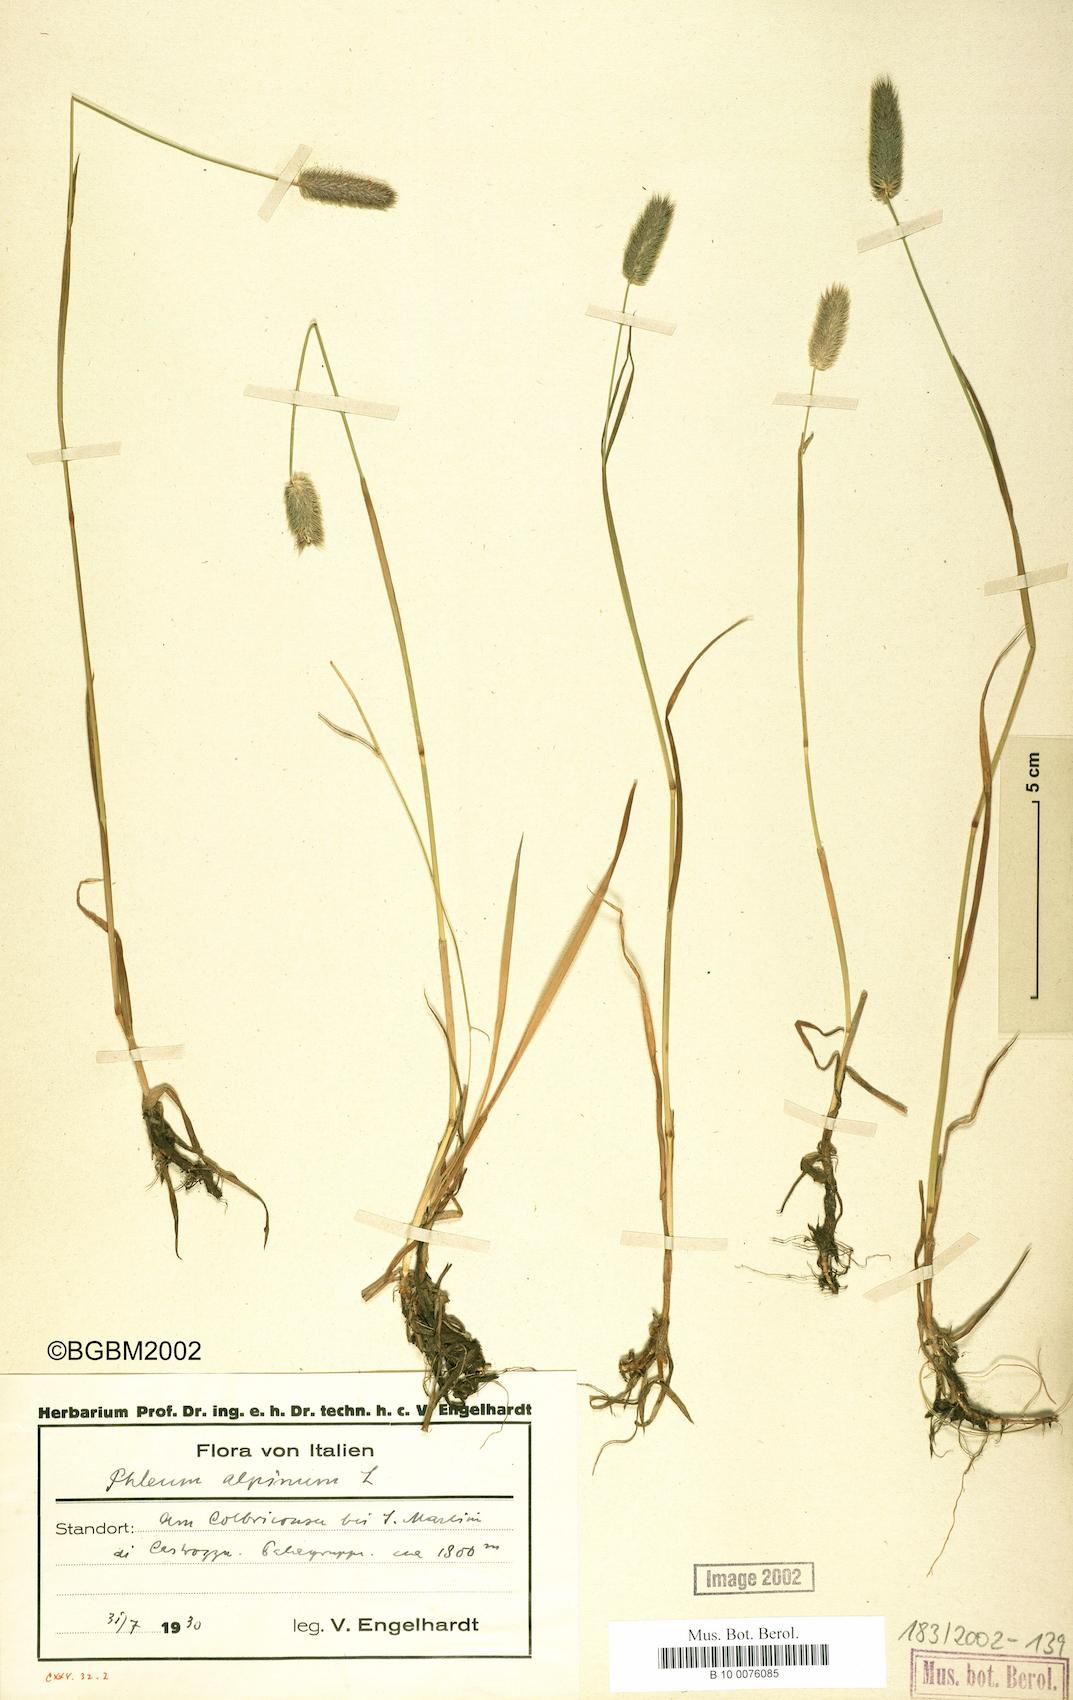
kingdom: Plantae
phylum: Tracheophyta
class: Liliopsida
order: Poales
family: Poaceae
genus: Phleum
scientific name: Phleum alpinum
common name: Alpine cat's-tail
